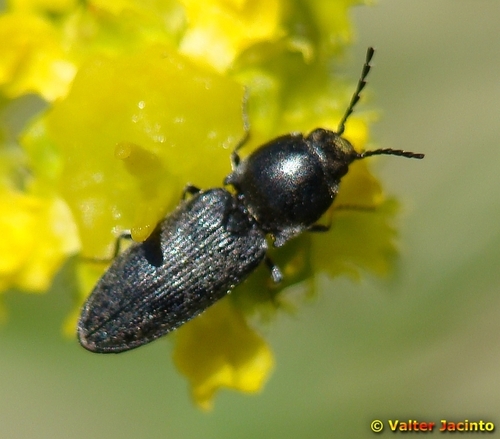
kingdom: Animalia
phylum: Arthropoda
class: Insecta
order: Coleoptera
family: Elateridae
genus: Cardiophorus
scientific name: Cardiophorus
